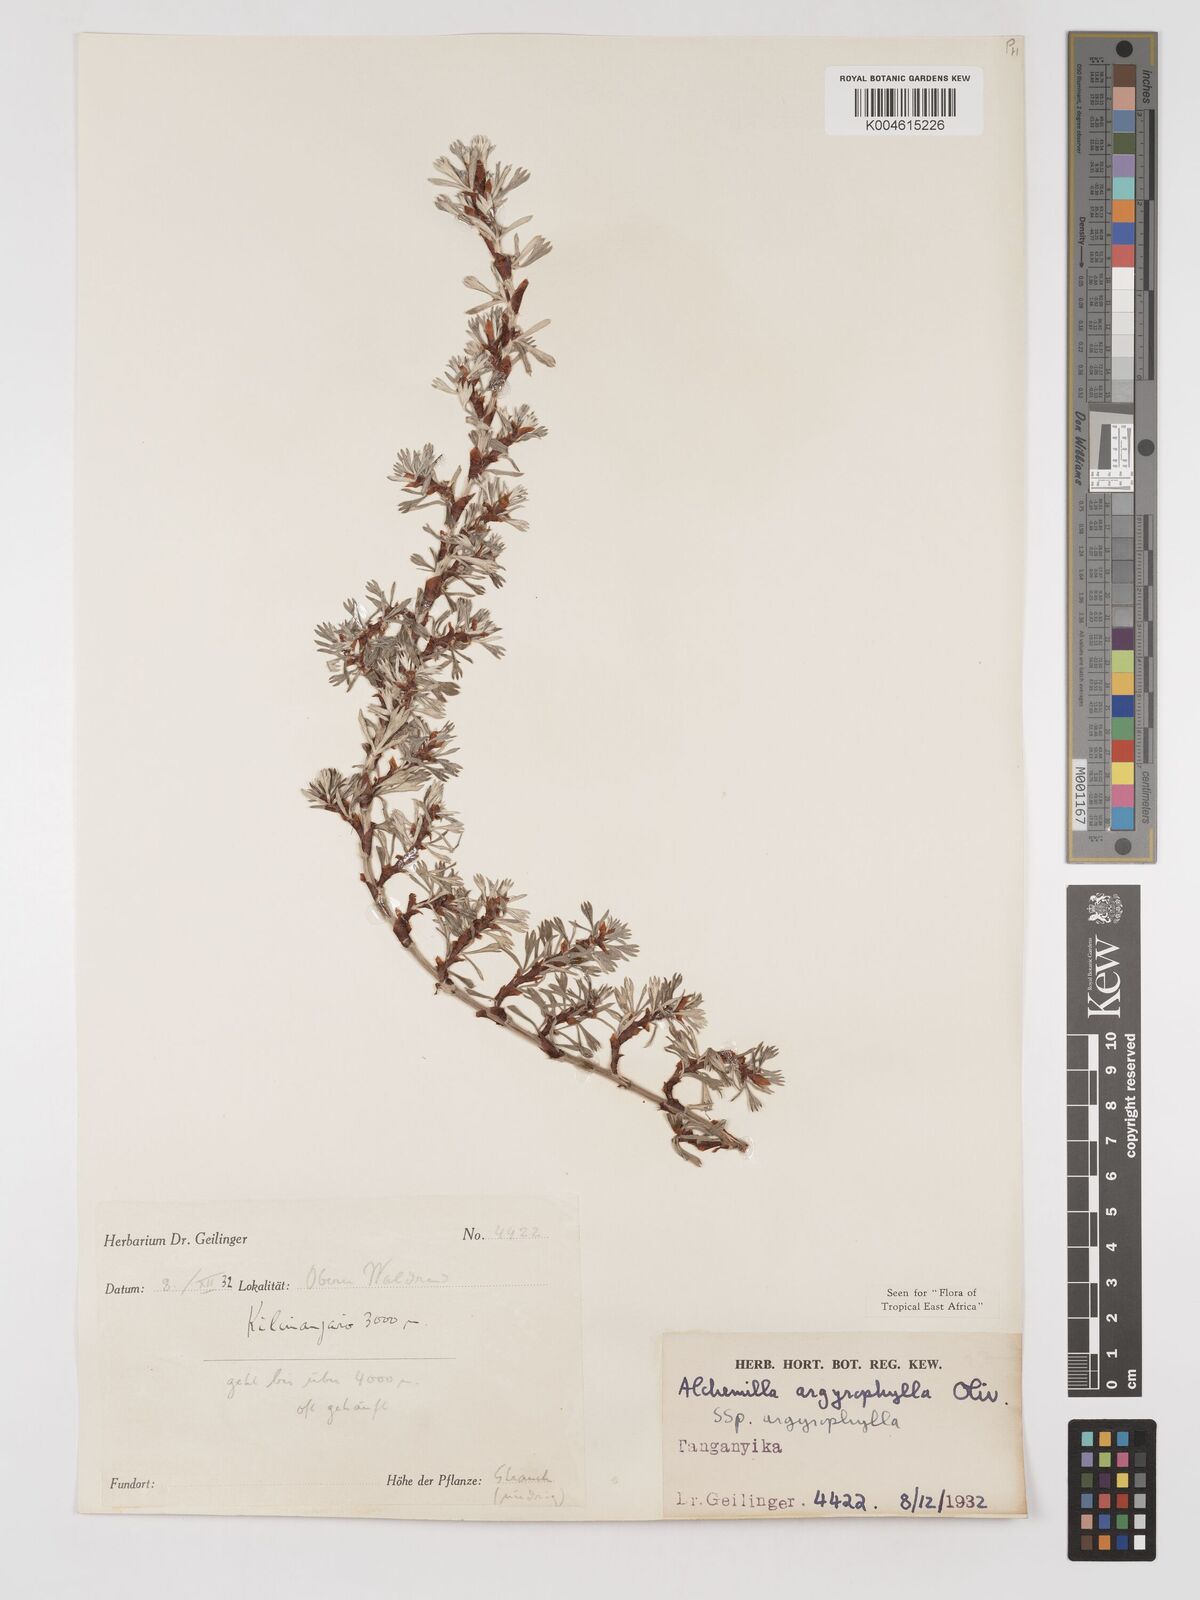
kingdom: Plantae
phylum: Tracheophyta
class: Magnoliopsida
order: Rosales
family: Rosaceae
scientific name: Rosaceae
